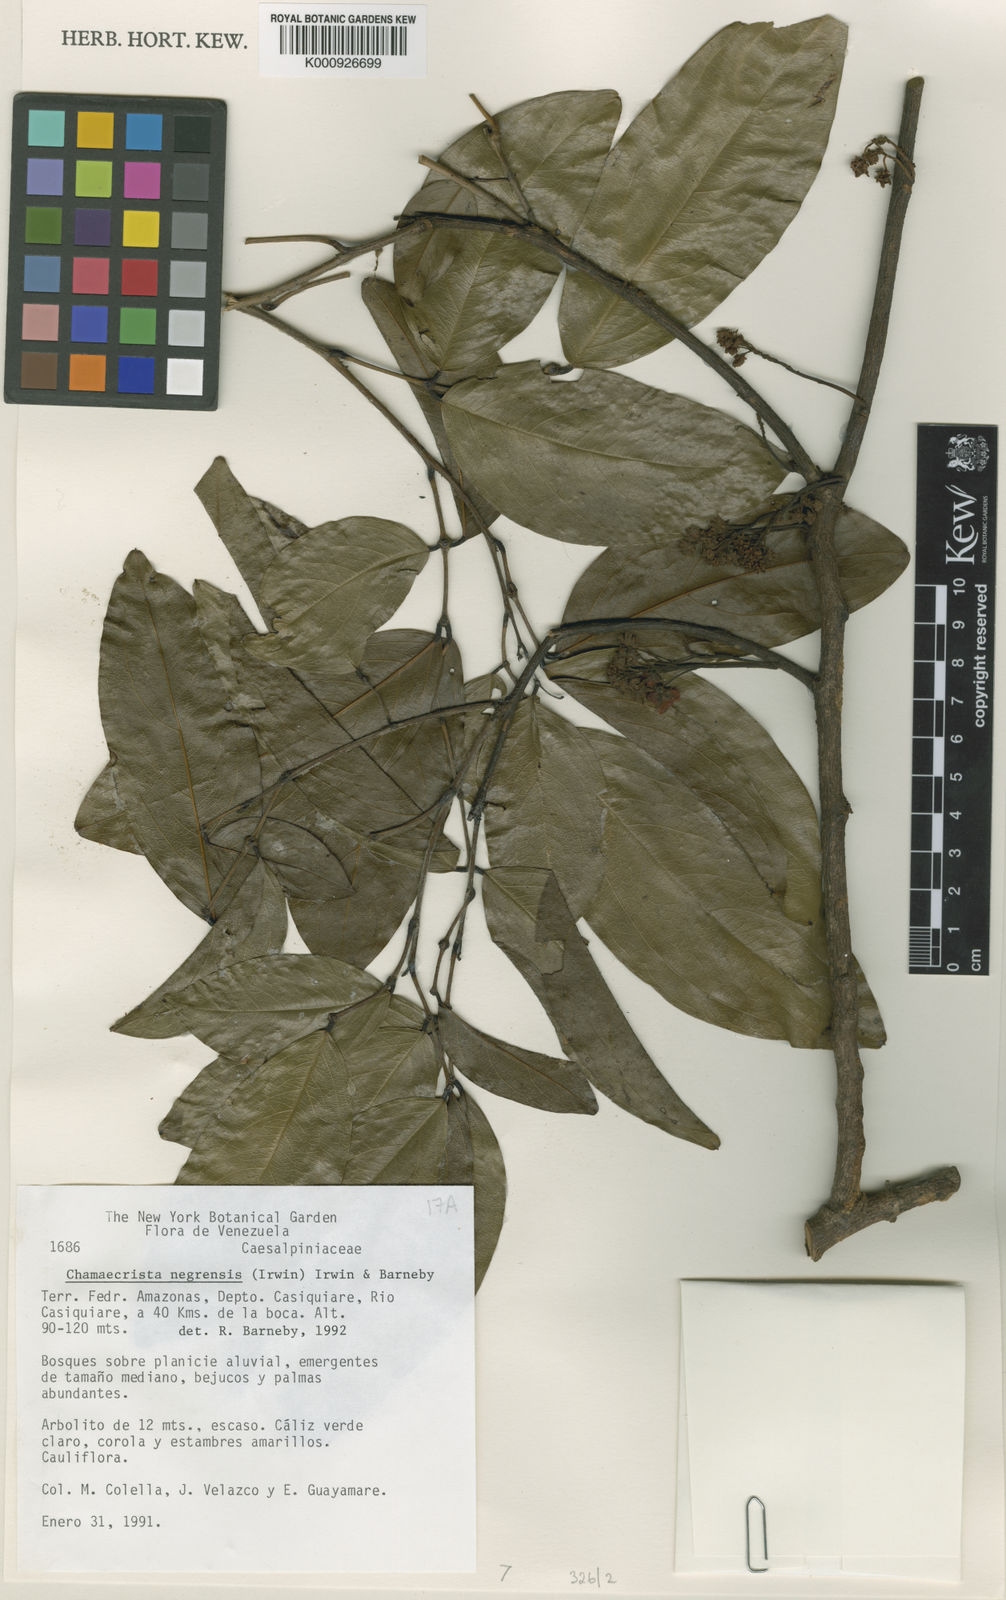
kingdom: Plantae
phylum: Tracheophyta
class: Magnoliopsida
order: Fabales
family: Fabaceae
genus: Chamaecrista
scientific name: Chamaecrista negrensis
